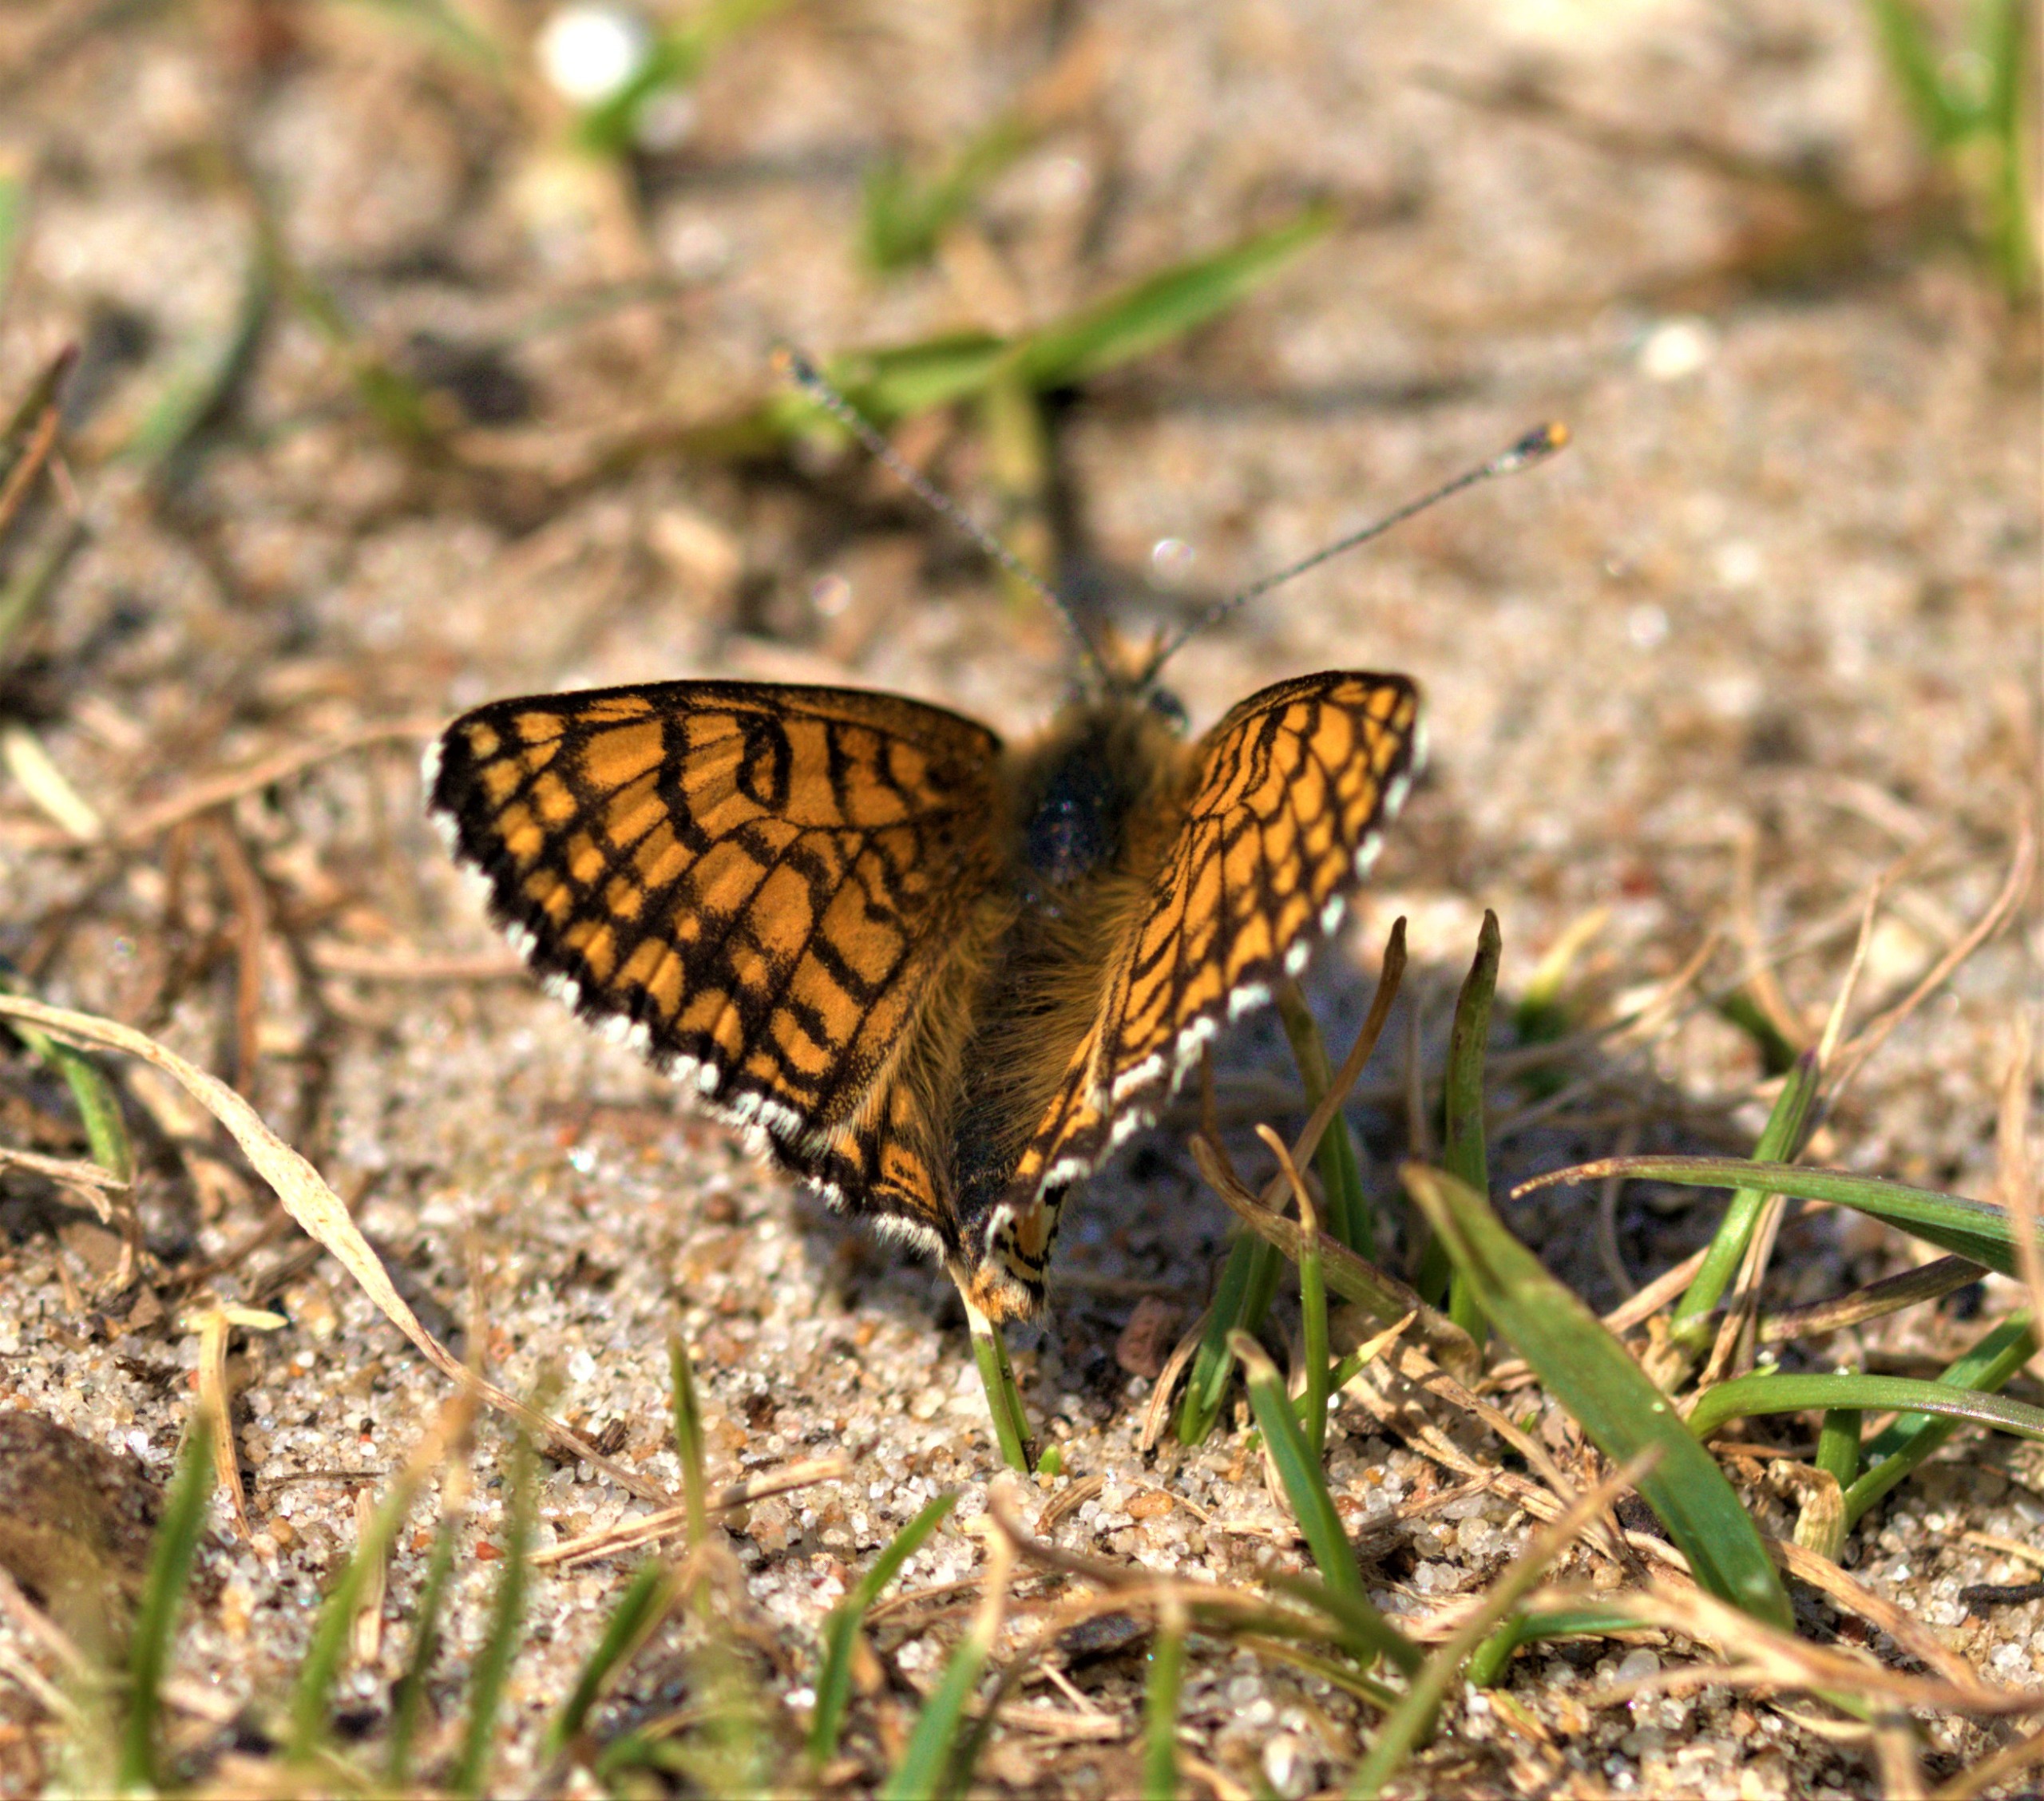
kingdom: Animalia
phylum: Arthropoda
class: Insecta
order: Lepidoptera
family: Nymphalidae
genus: Melitaea
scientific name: Melitaea cinxia
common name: Okkergul pletvinge
